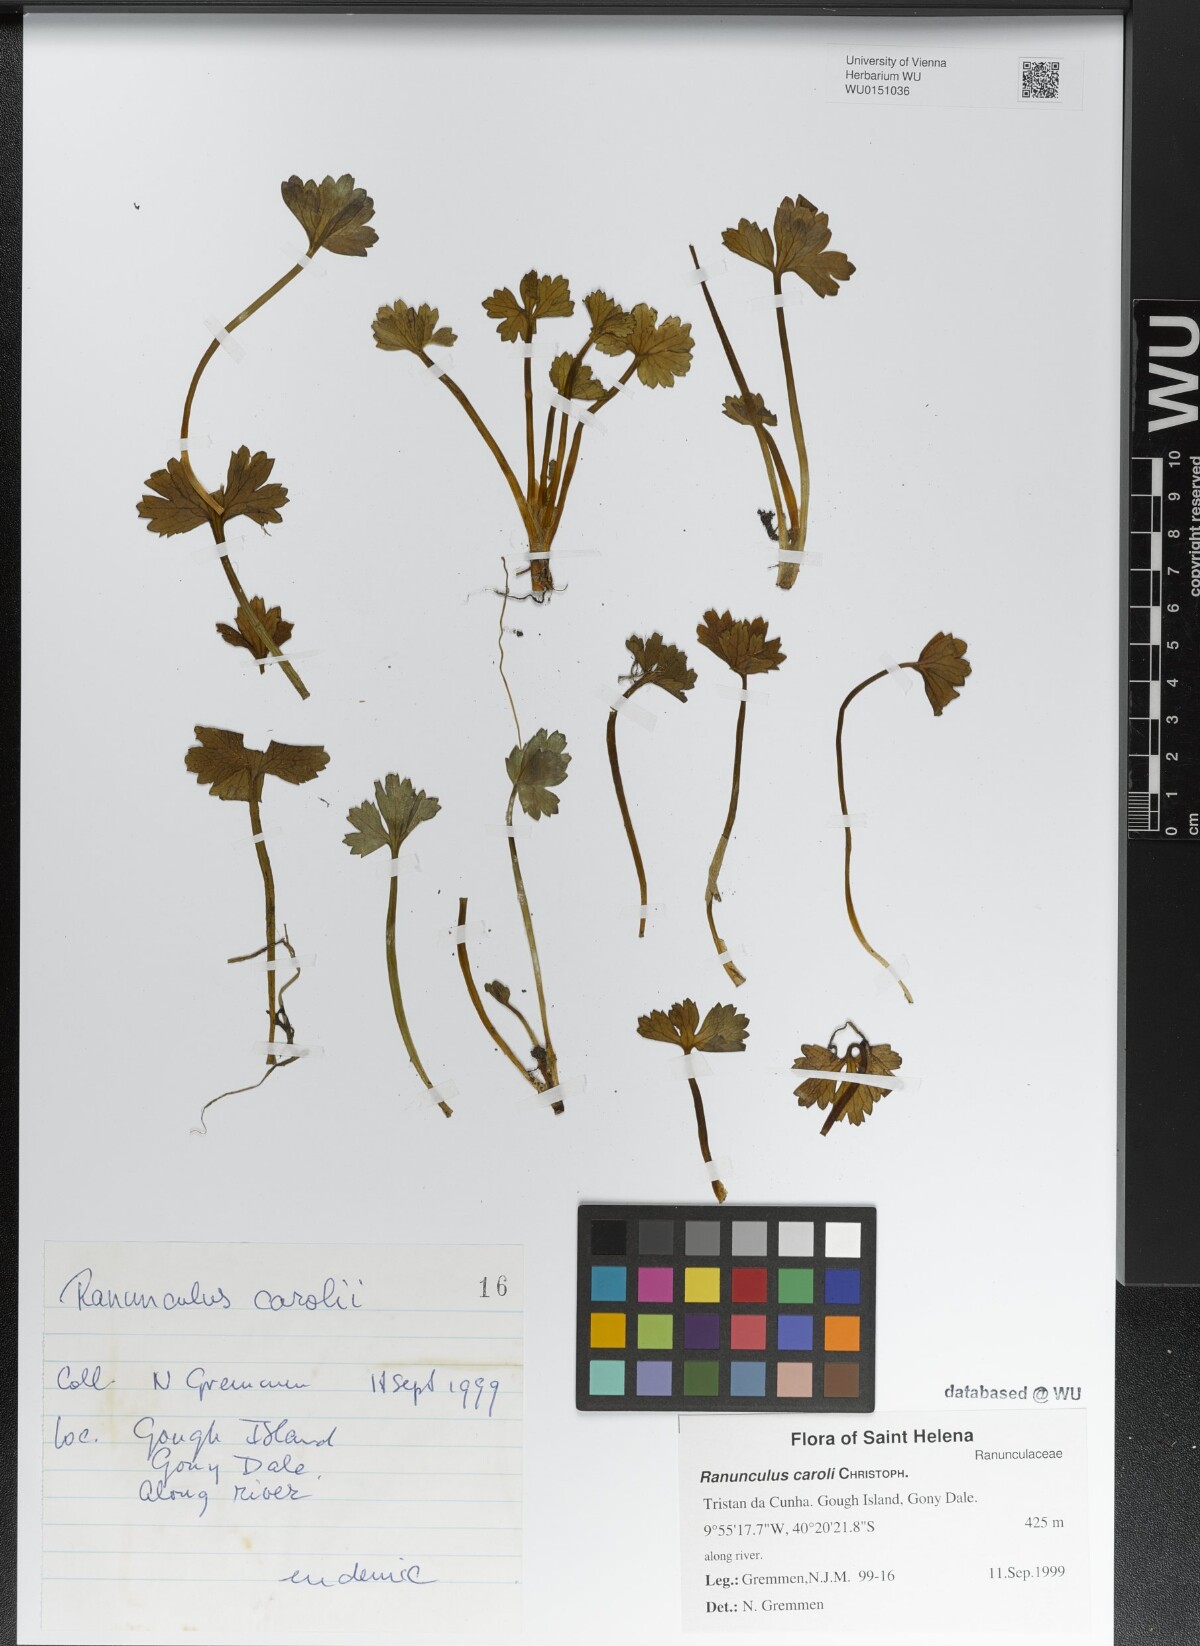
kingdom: Plantae
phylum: Tracheophyta
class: Magnoliopsida
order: Ranunculales
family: Ranunculaceae
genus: Ranunculus
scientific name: Ranunculus caroli
